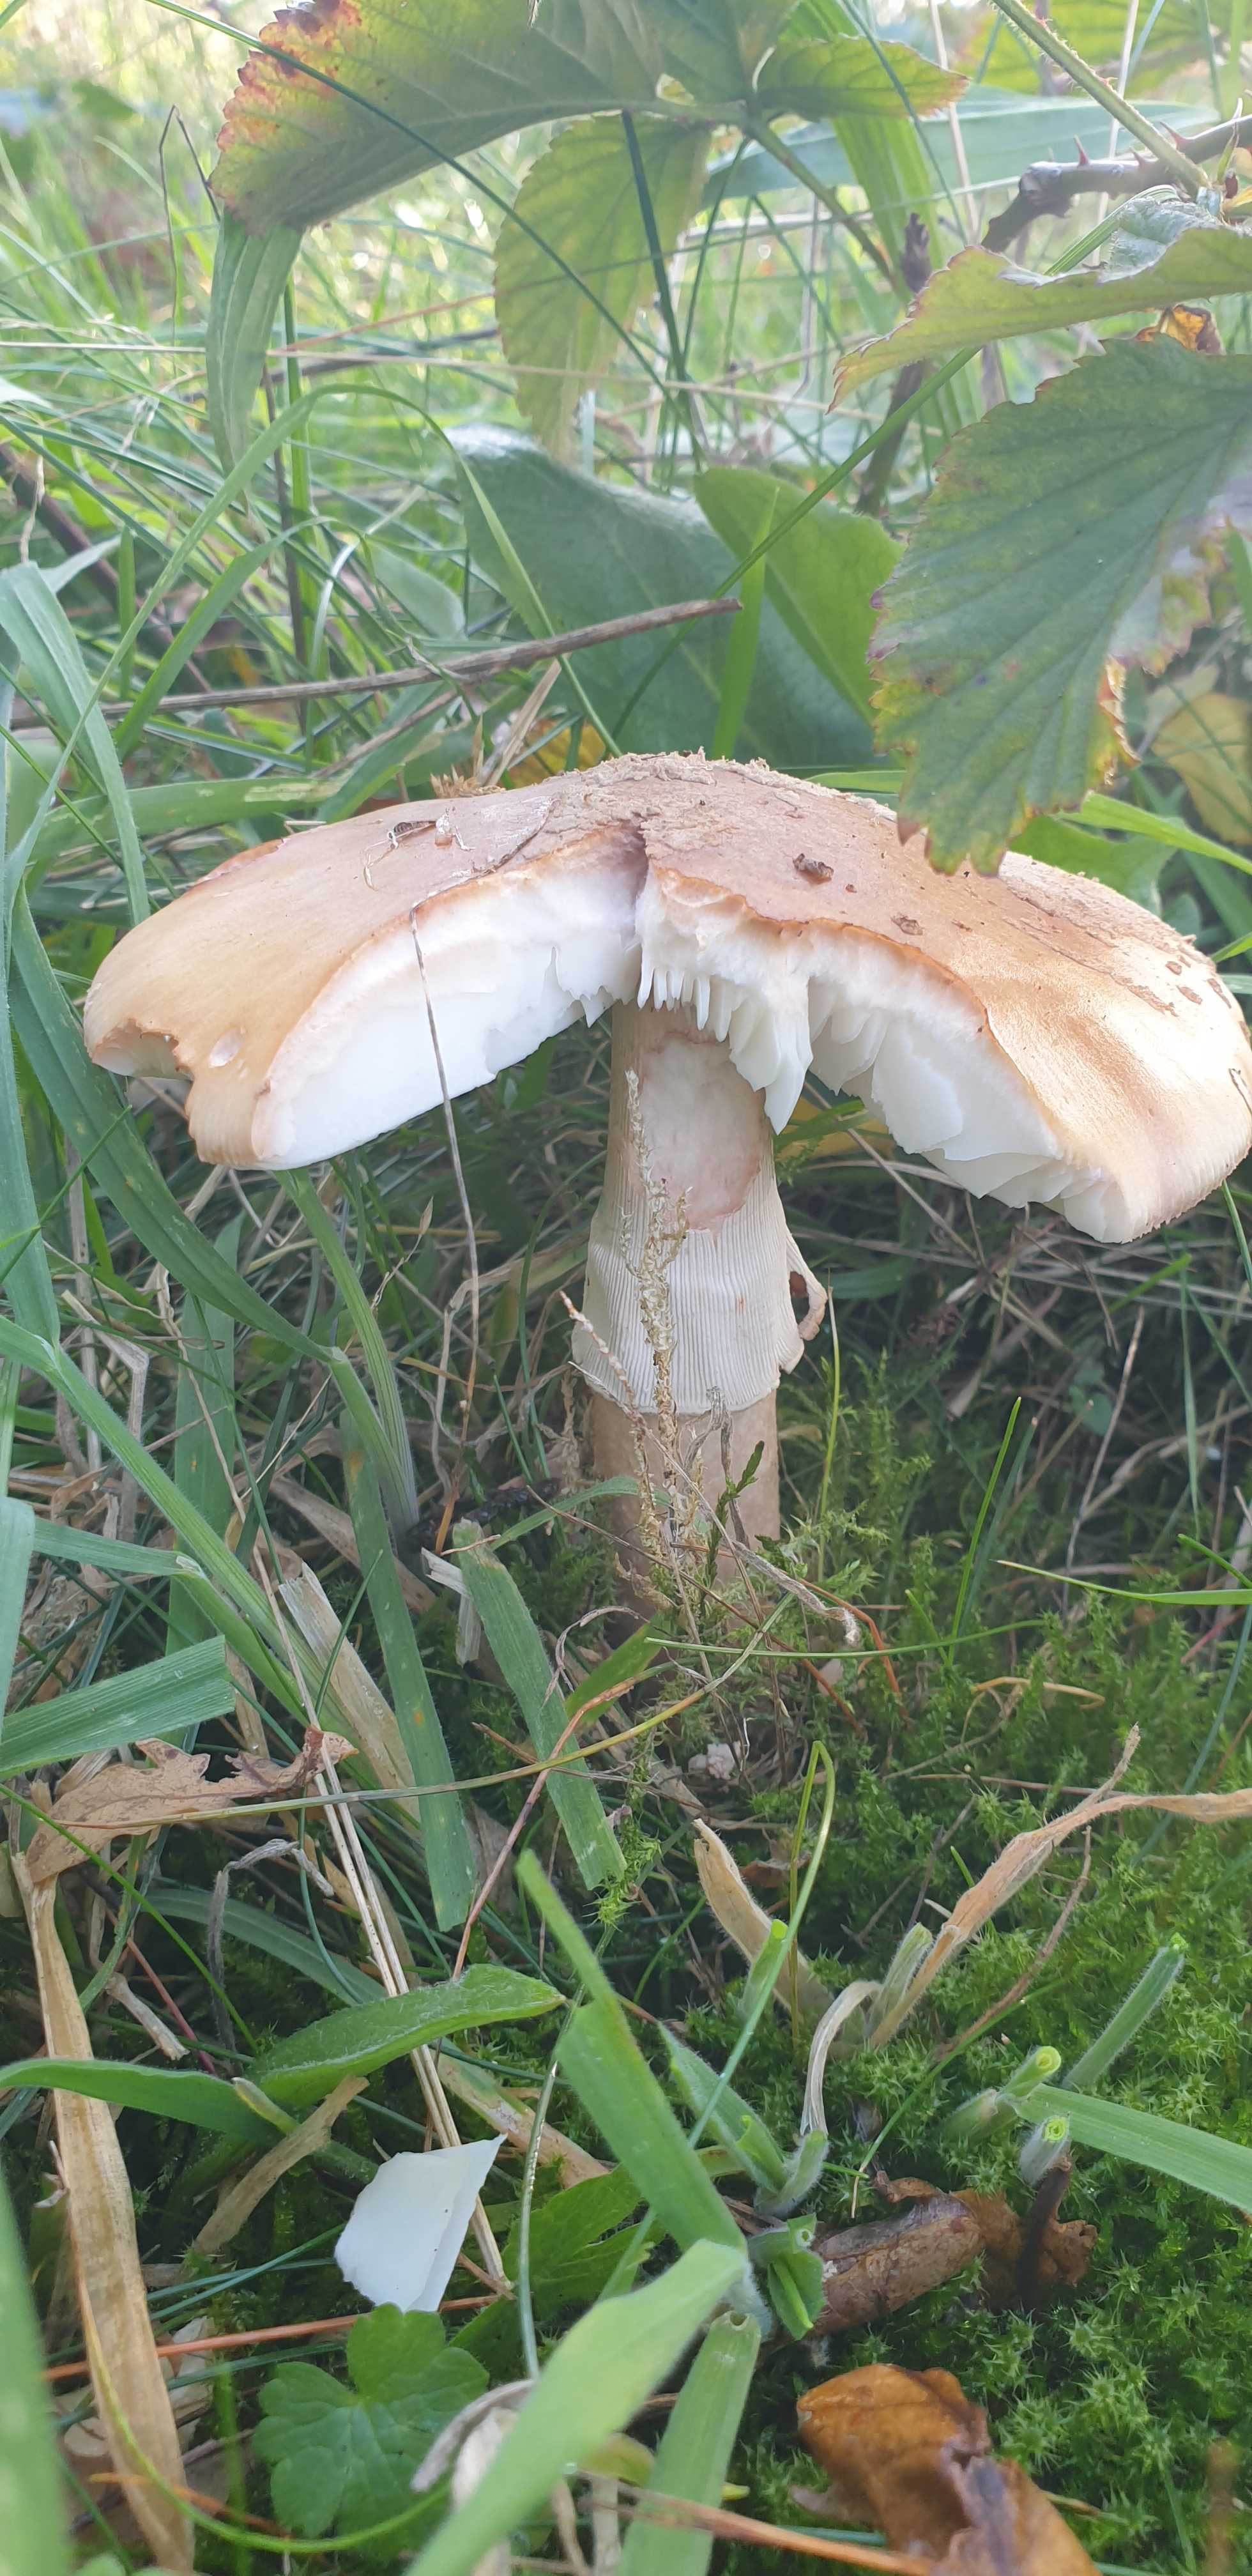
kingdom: Fungi
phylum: Basidiomycota
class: Agaricomycetes
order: Agaricales
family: Amanitaceae
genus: Amanita
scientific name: Amanita rubescens
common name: rødmende fluesvamp
